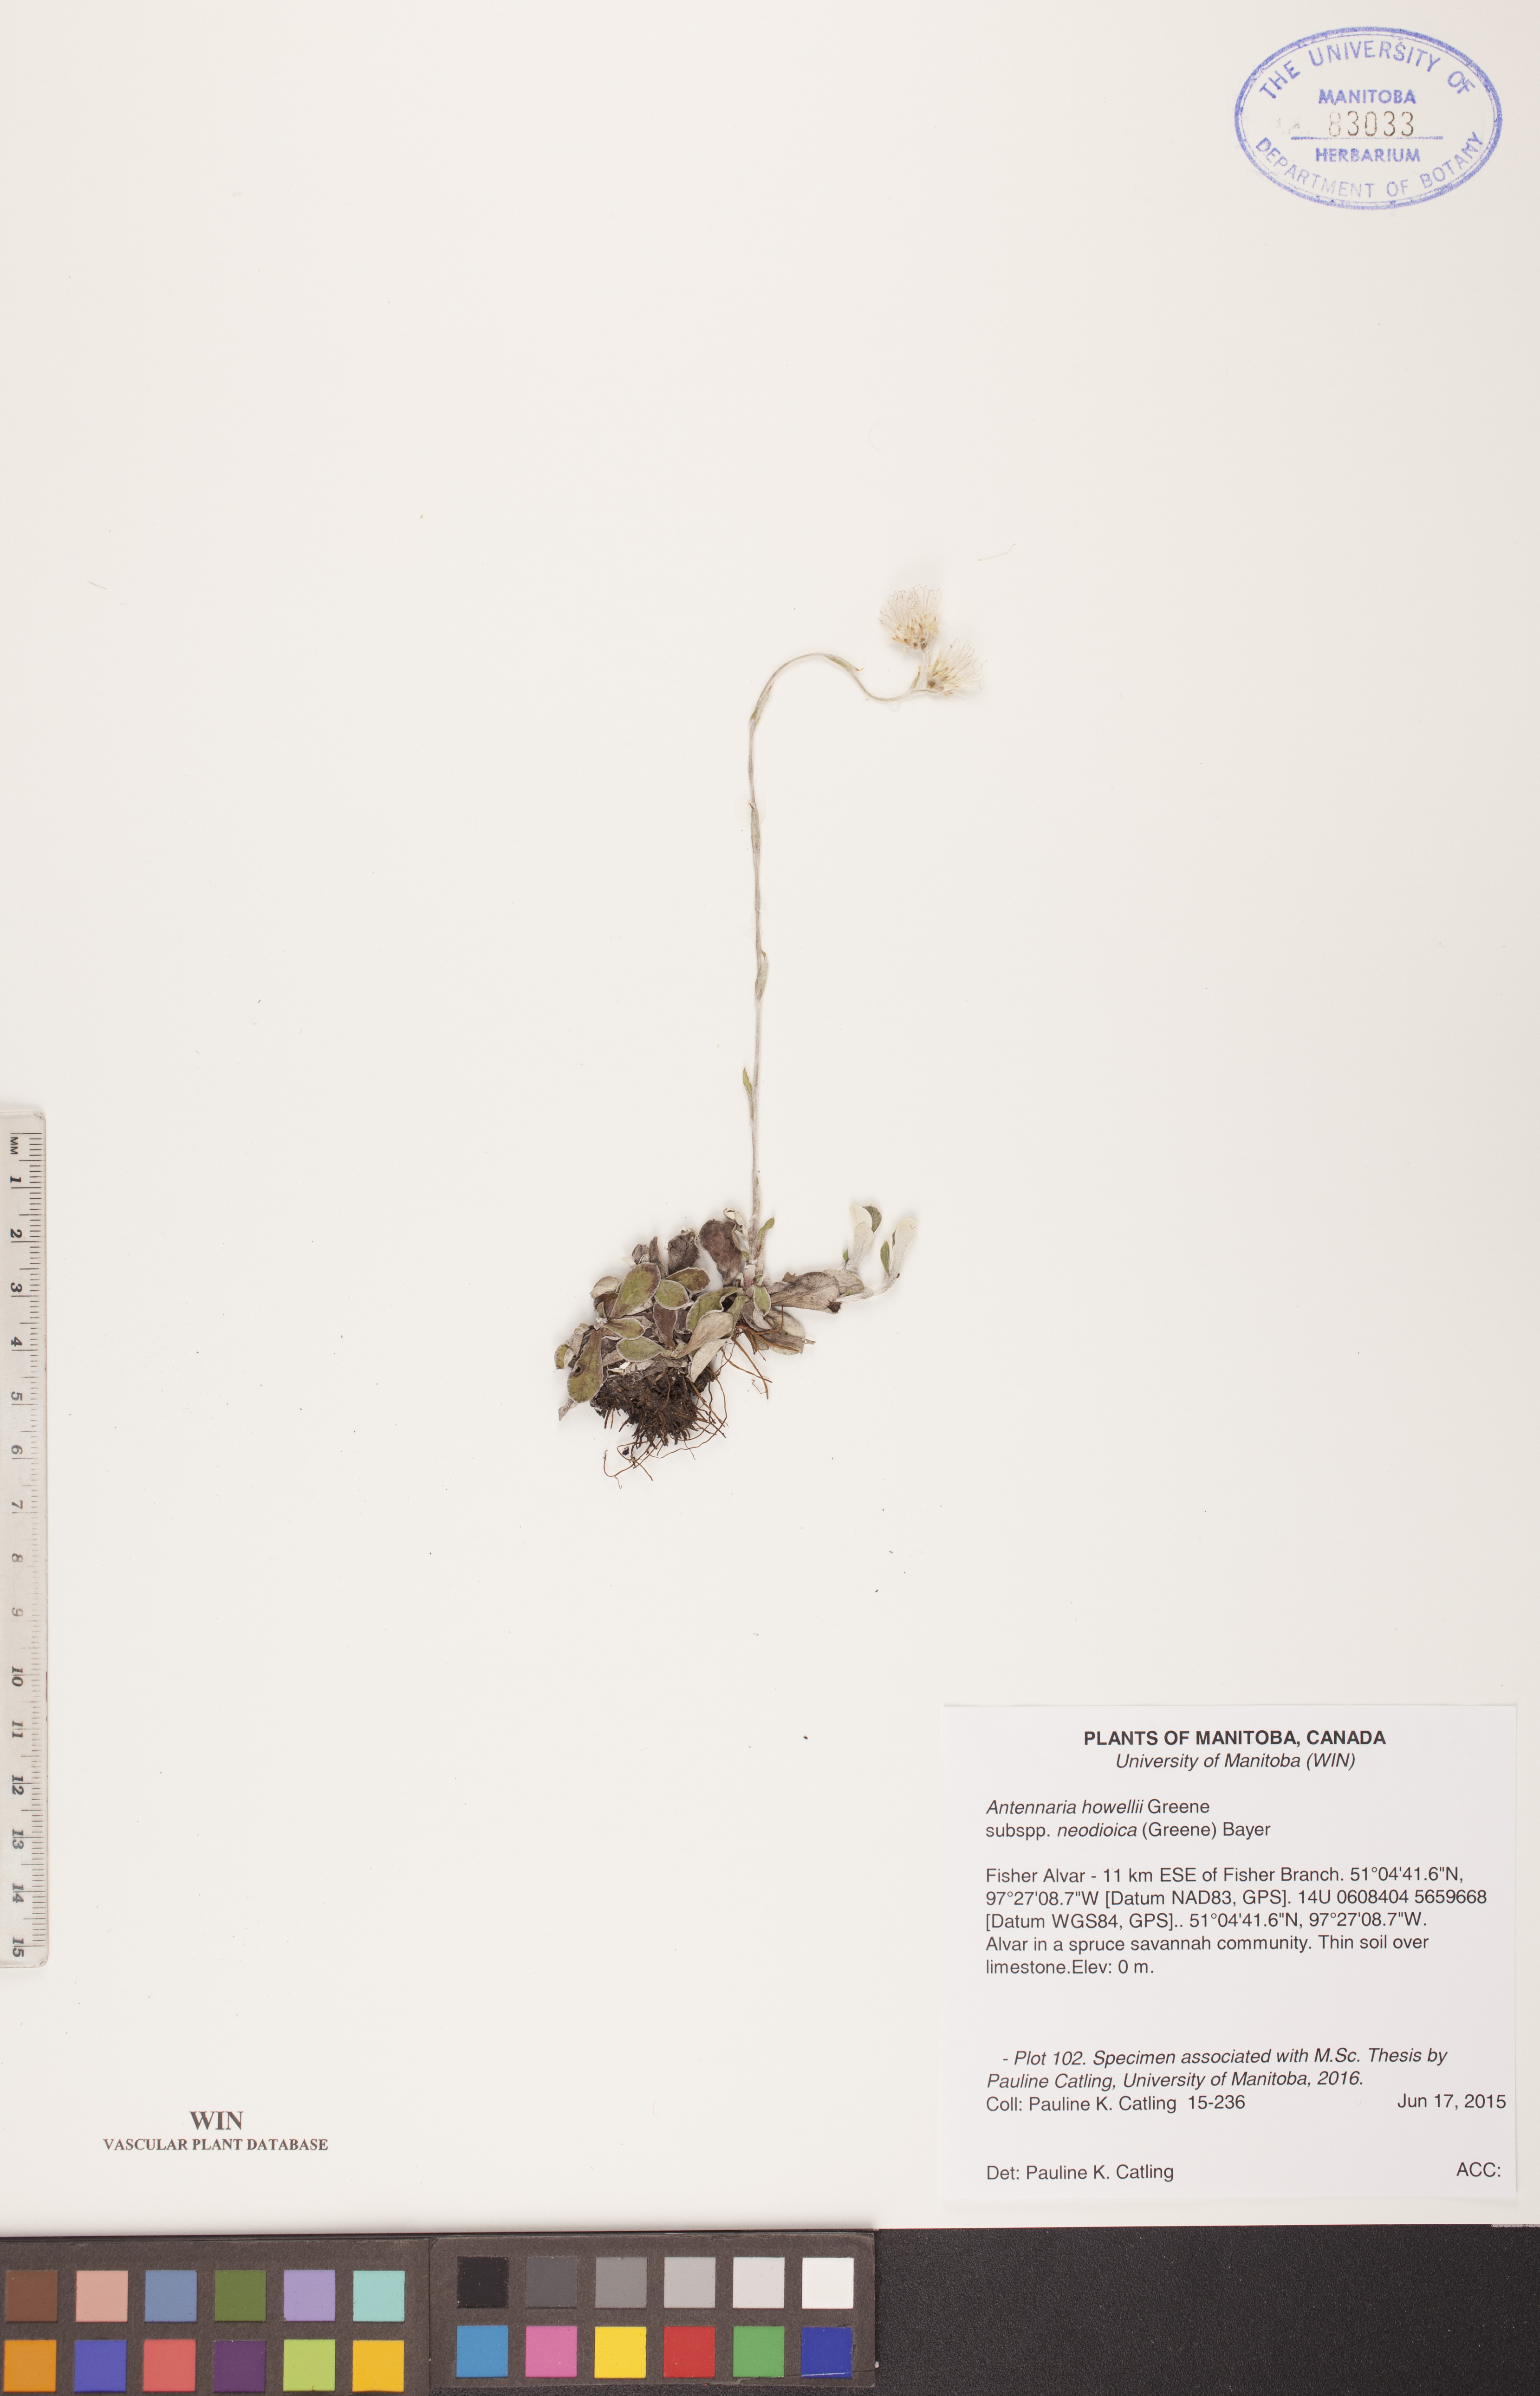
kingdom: Plantae
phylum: Tracheophyta
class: Magnoliopsida
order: Asterales
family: Asteraceae
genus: Antennaria
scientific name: Antennaria howellii
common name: Howell's pussytoes
